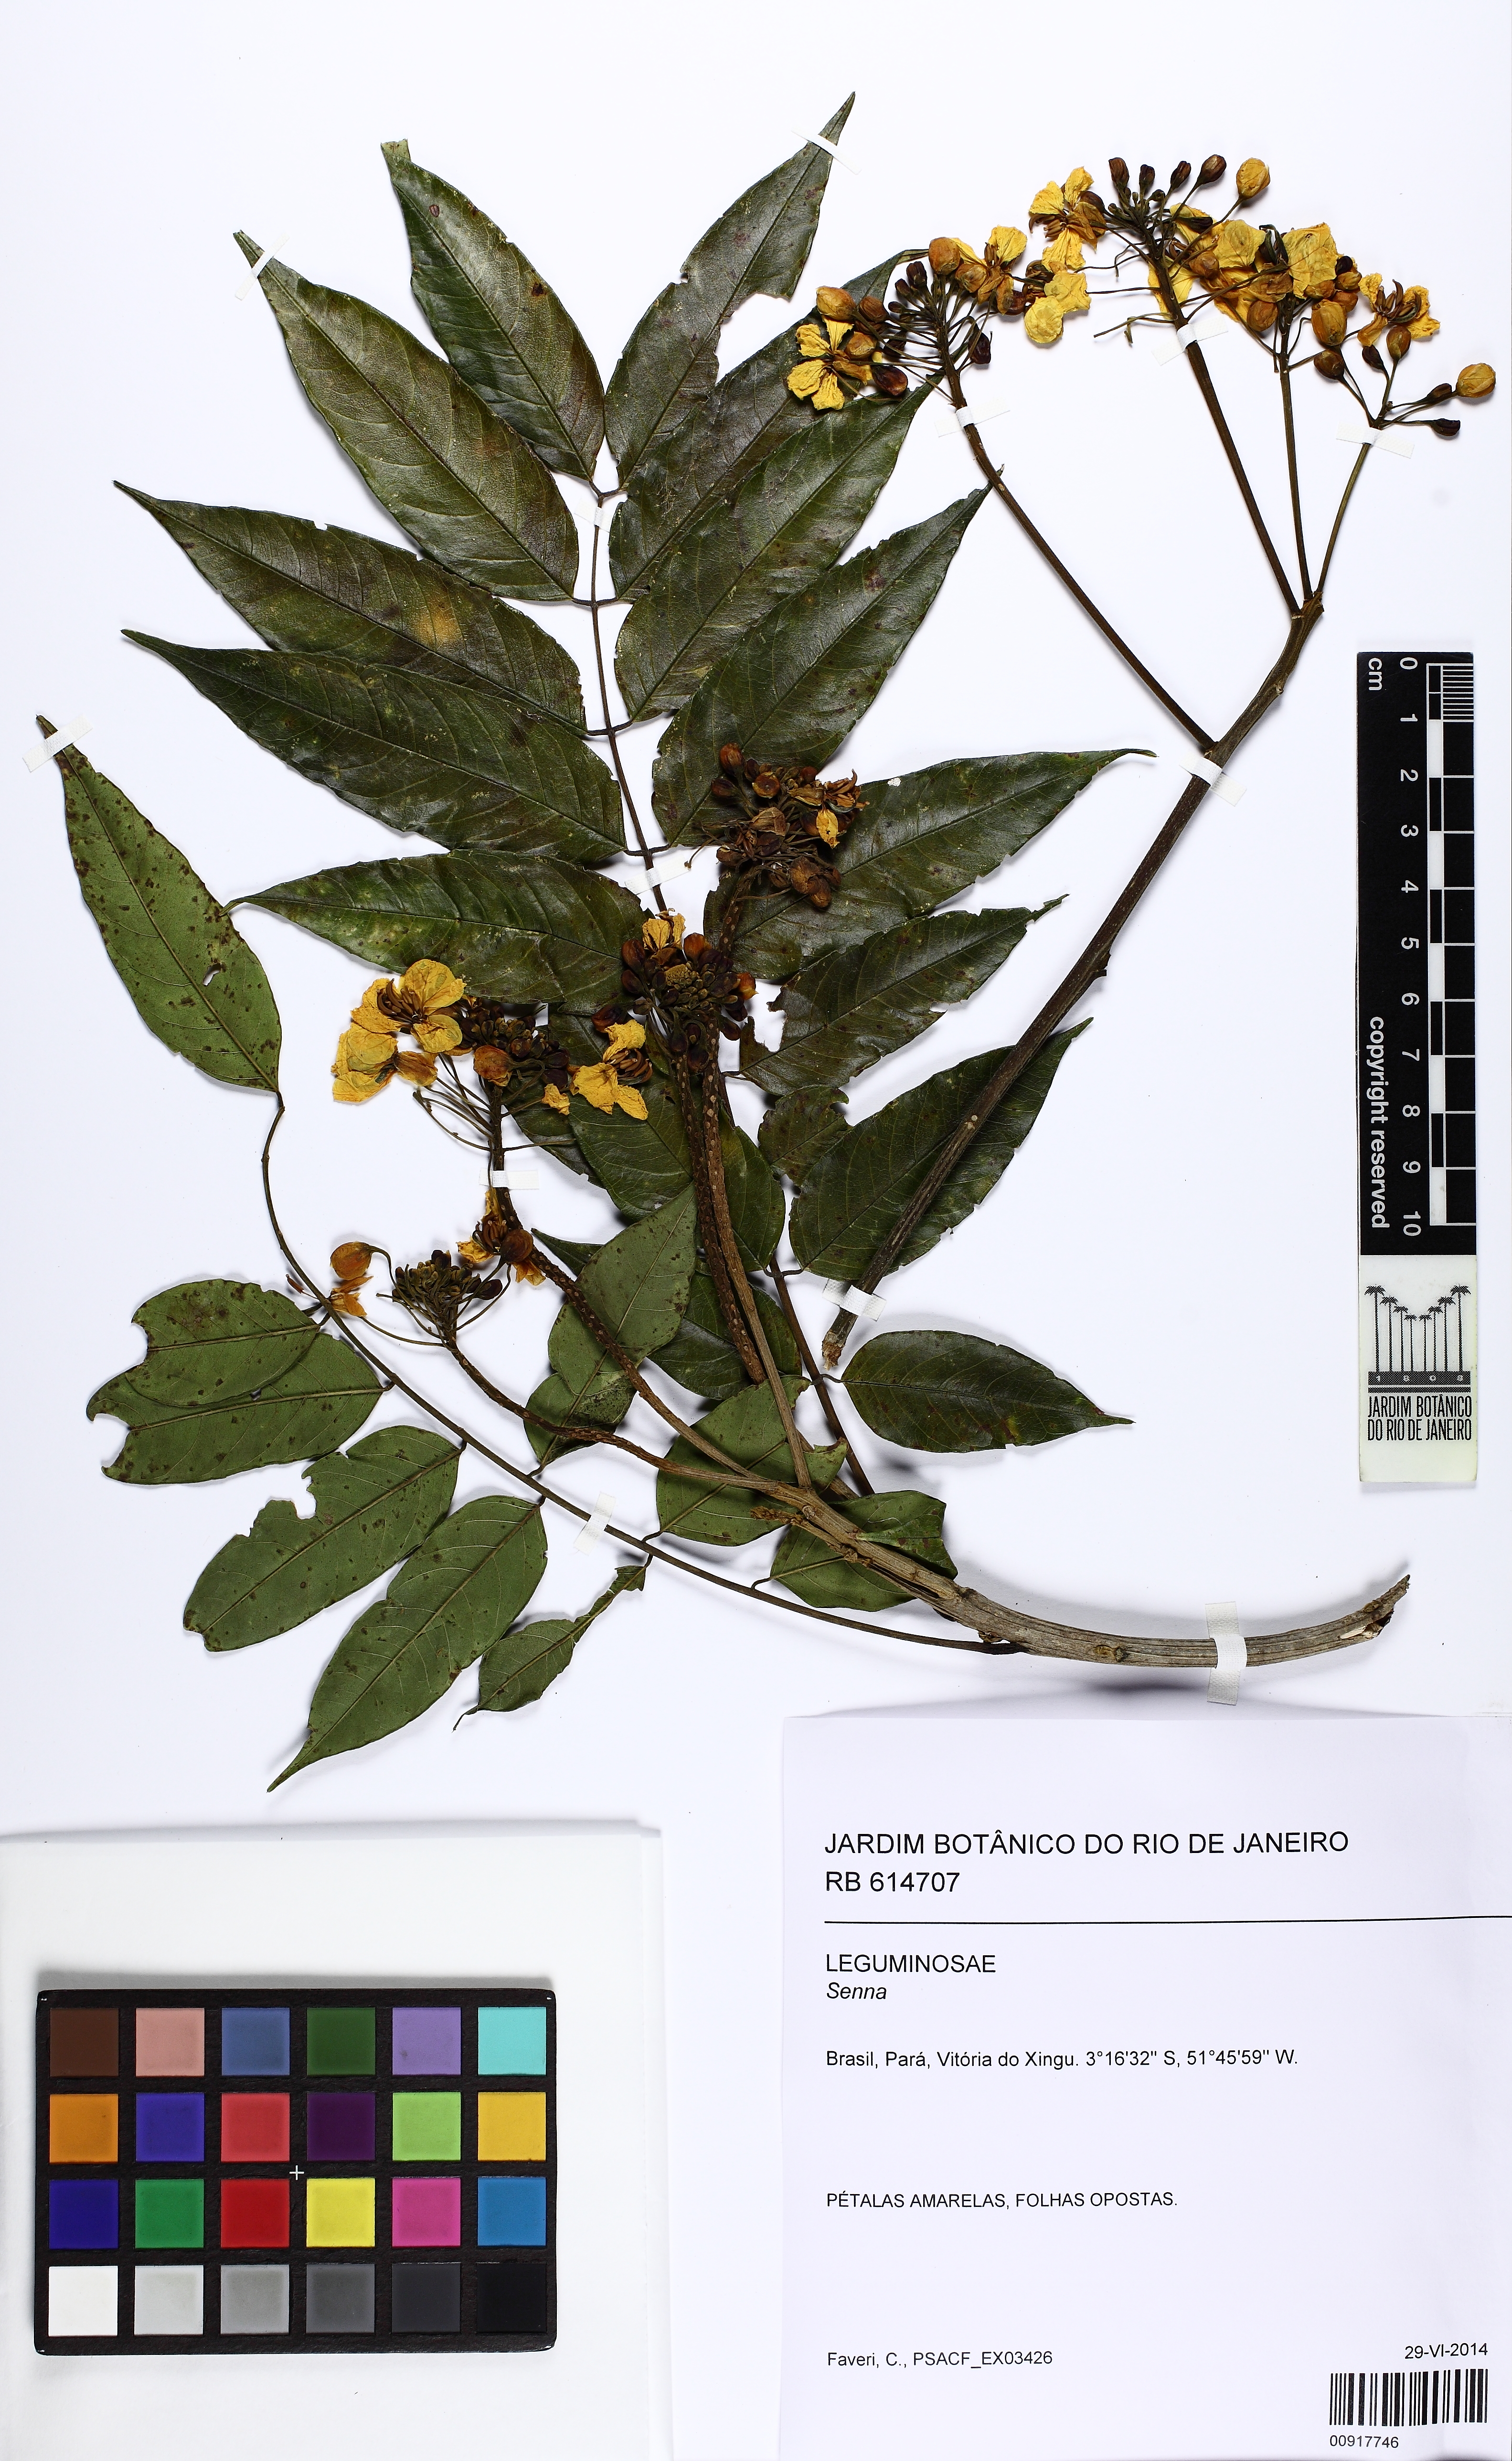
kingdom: Plantae
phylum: Tracheophyta
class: Magnoliopsida
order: Fabales
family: Fabaceae
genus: Senna
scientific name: Senna
